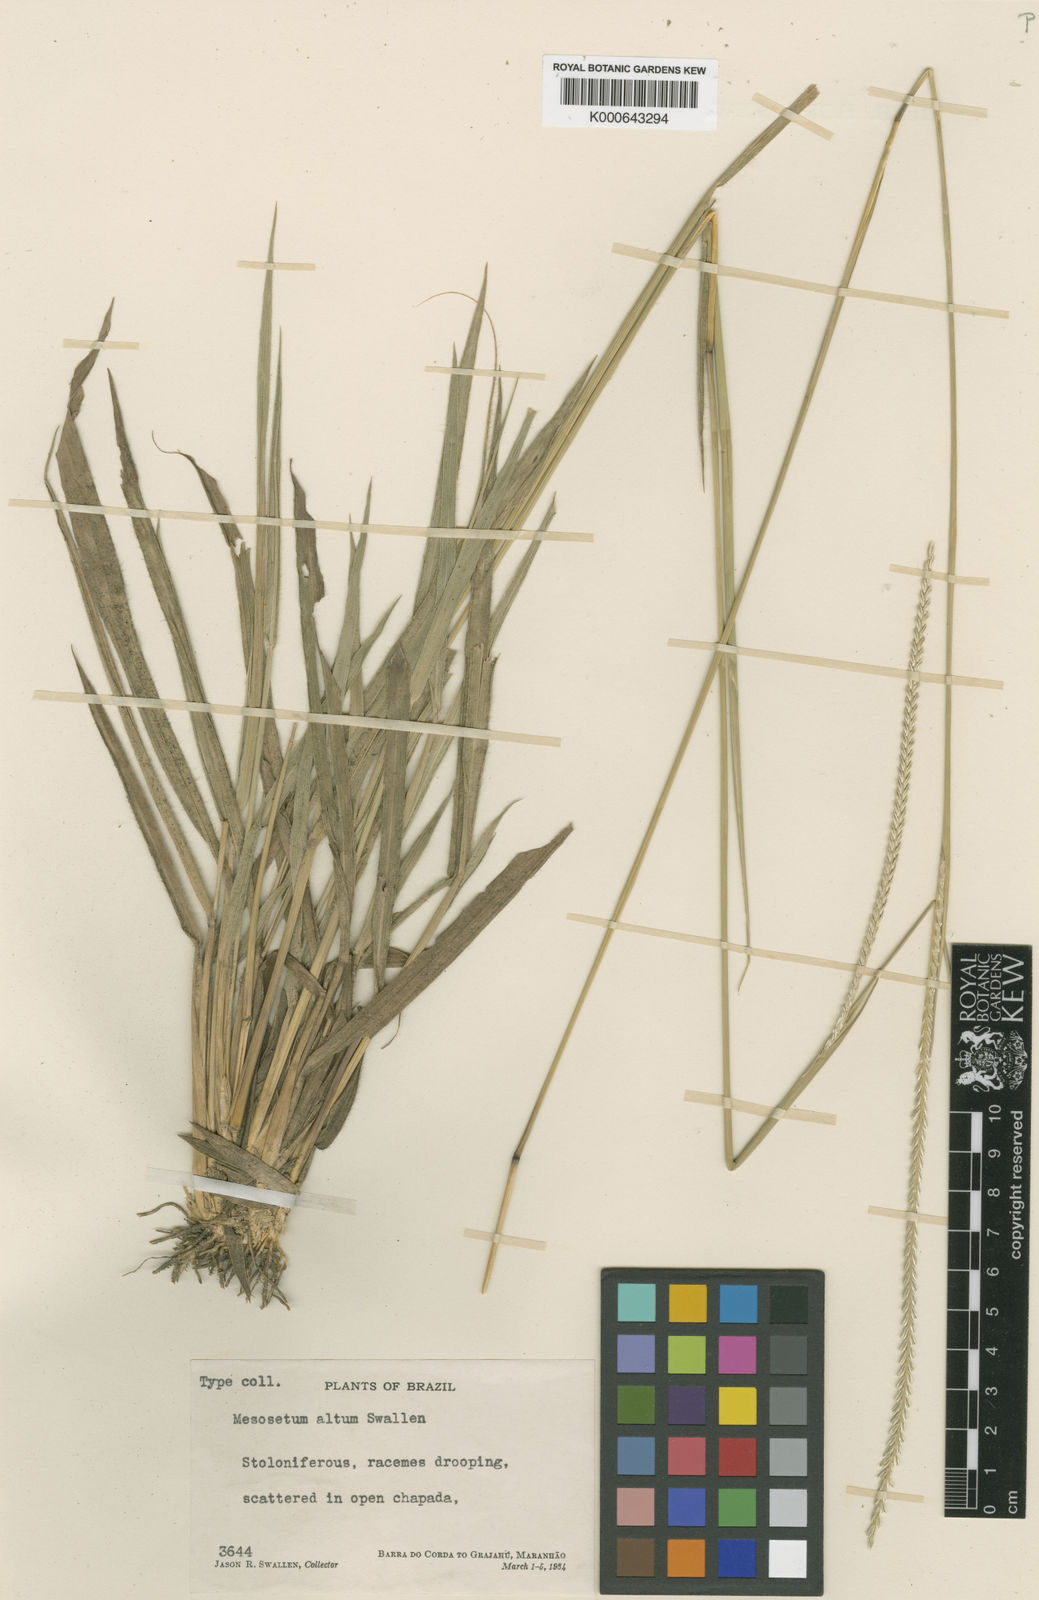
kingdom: Plantae
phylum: Tracheophyta
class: Liliopsida
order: Poales
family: Poaceae
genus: Mesosetum
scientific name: Mesosetum
